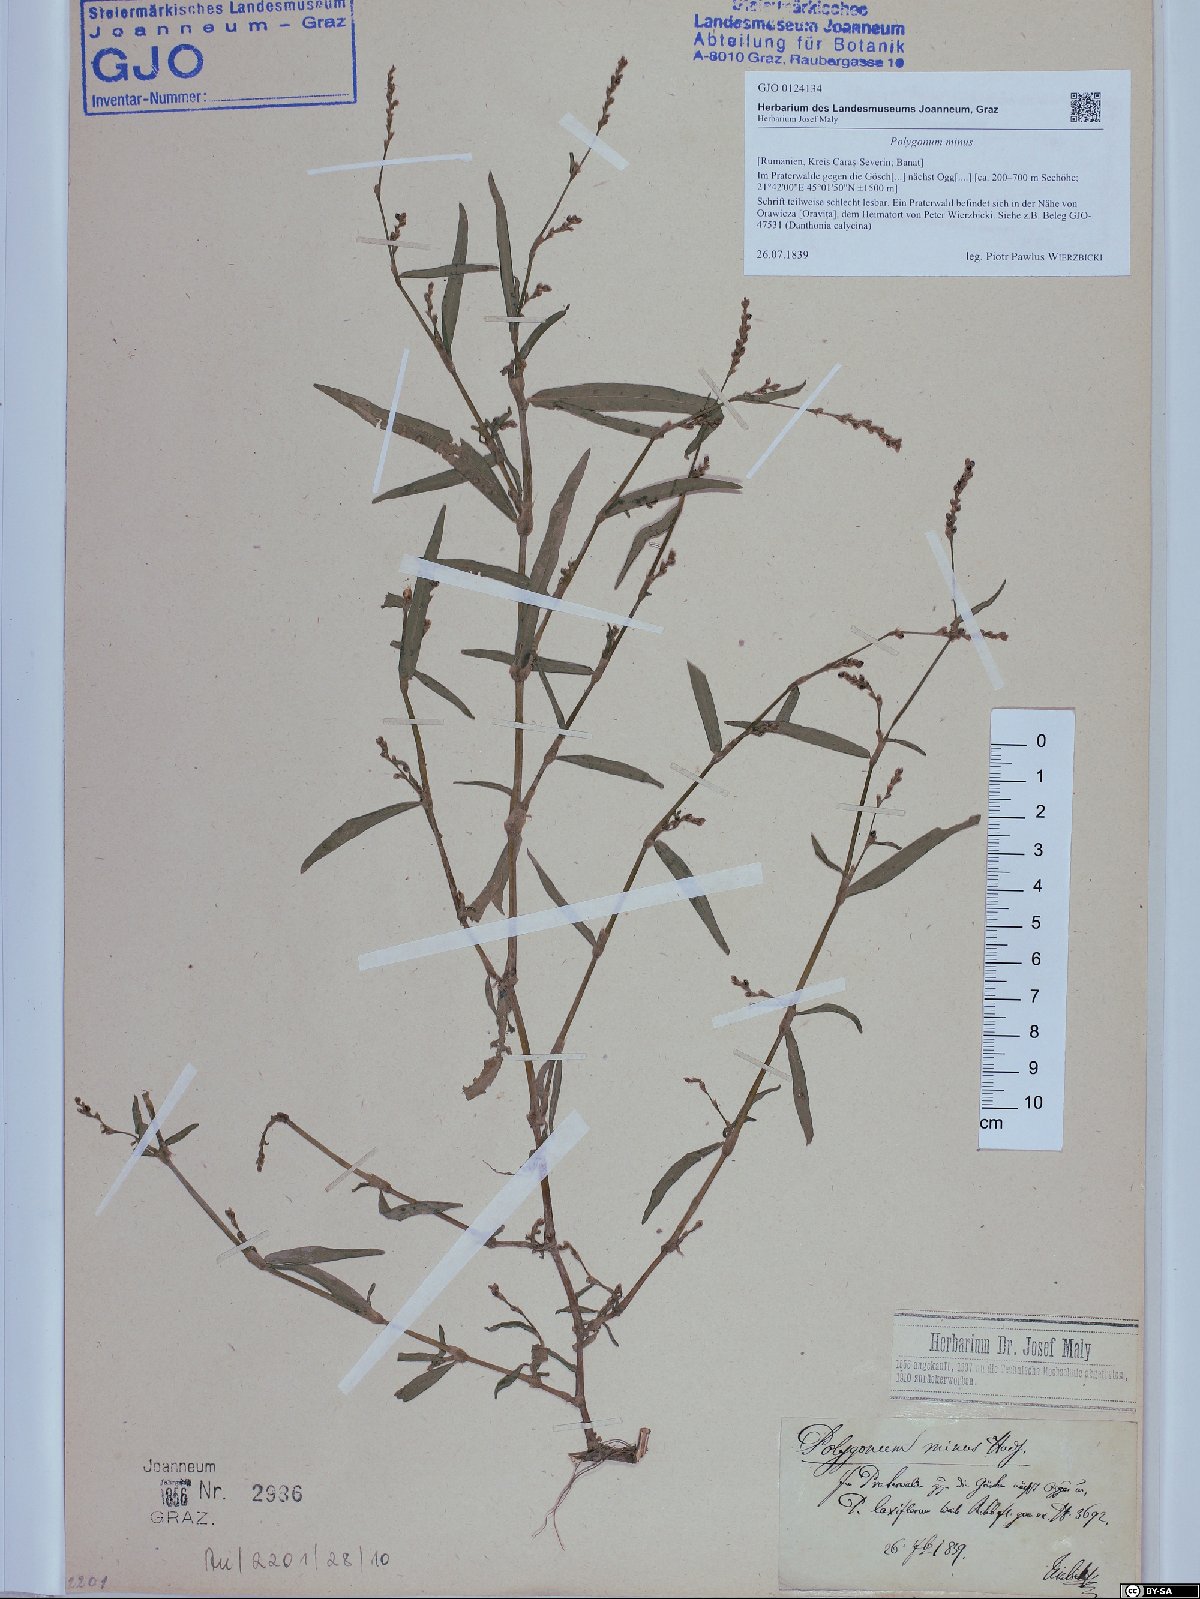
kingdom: Plantae
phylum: Tracheophyta
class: Magnoliopsida
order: Caryophyllales
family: Polygonaceae
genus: Persicaria
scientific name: Persicaria minor
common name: Small water-pepper
